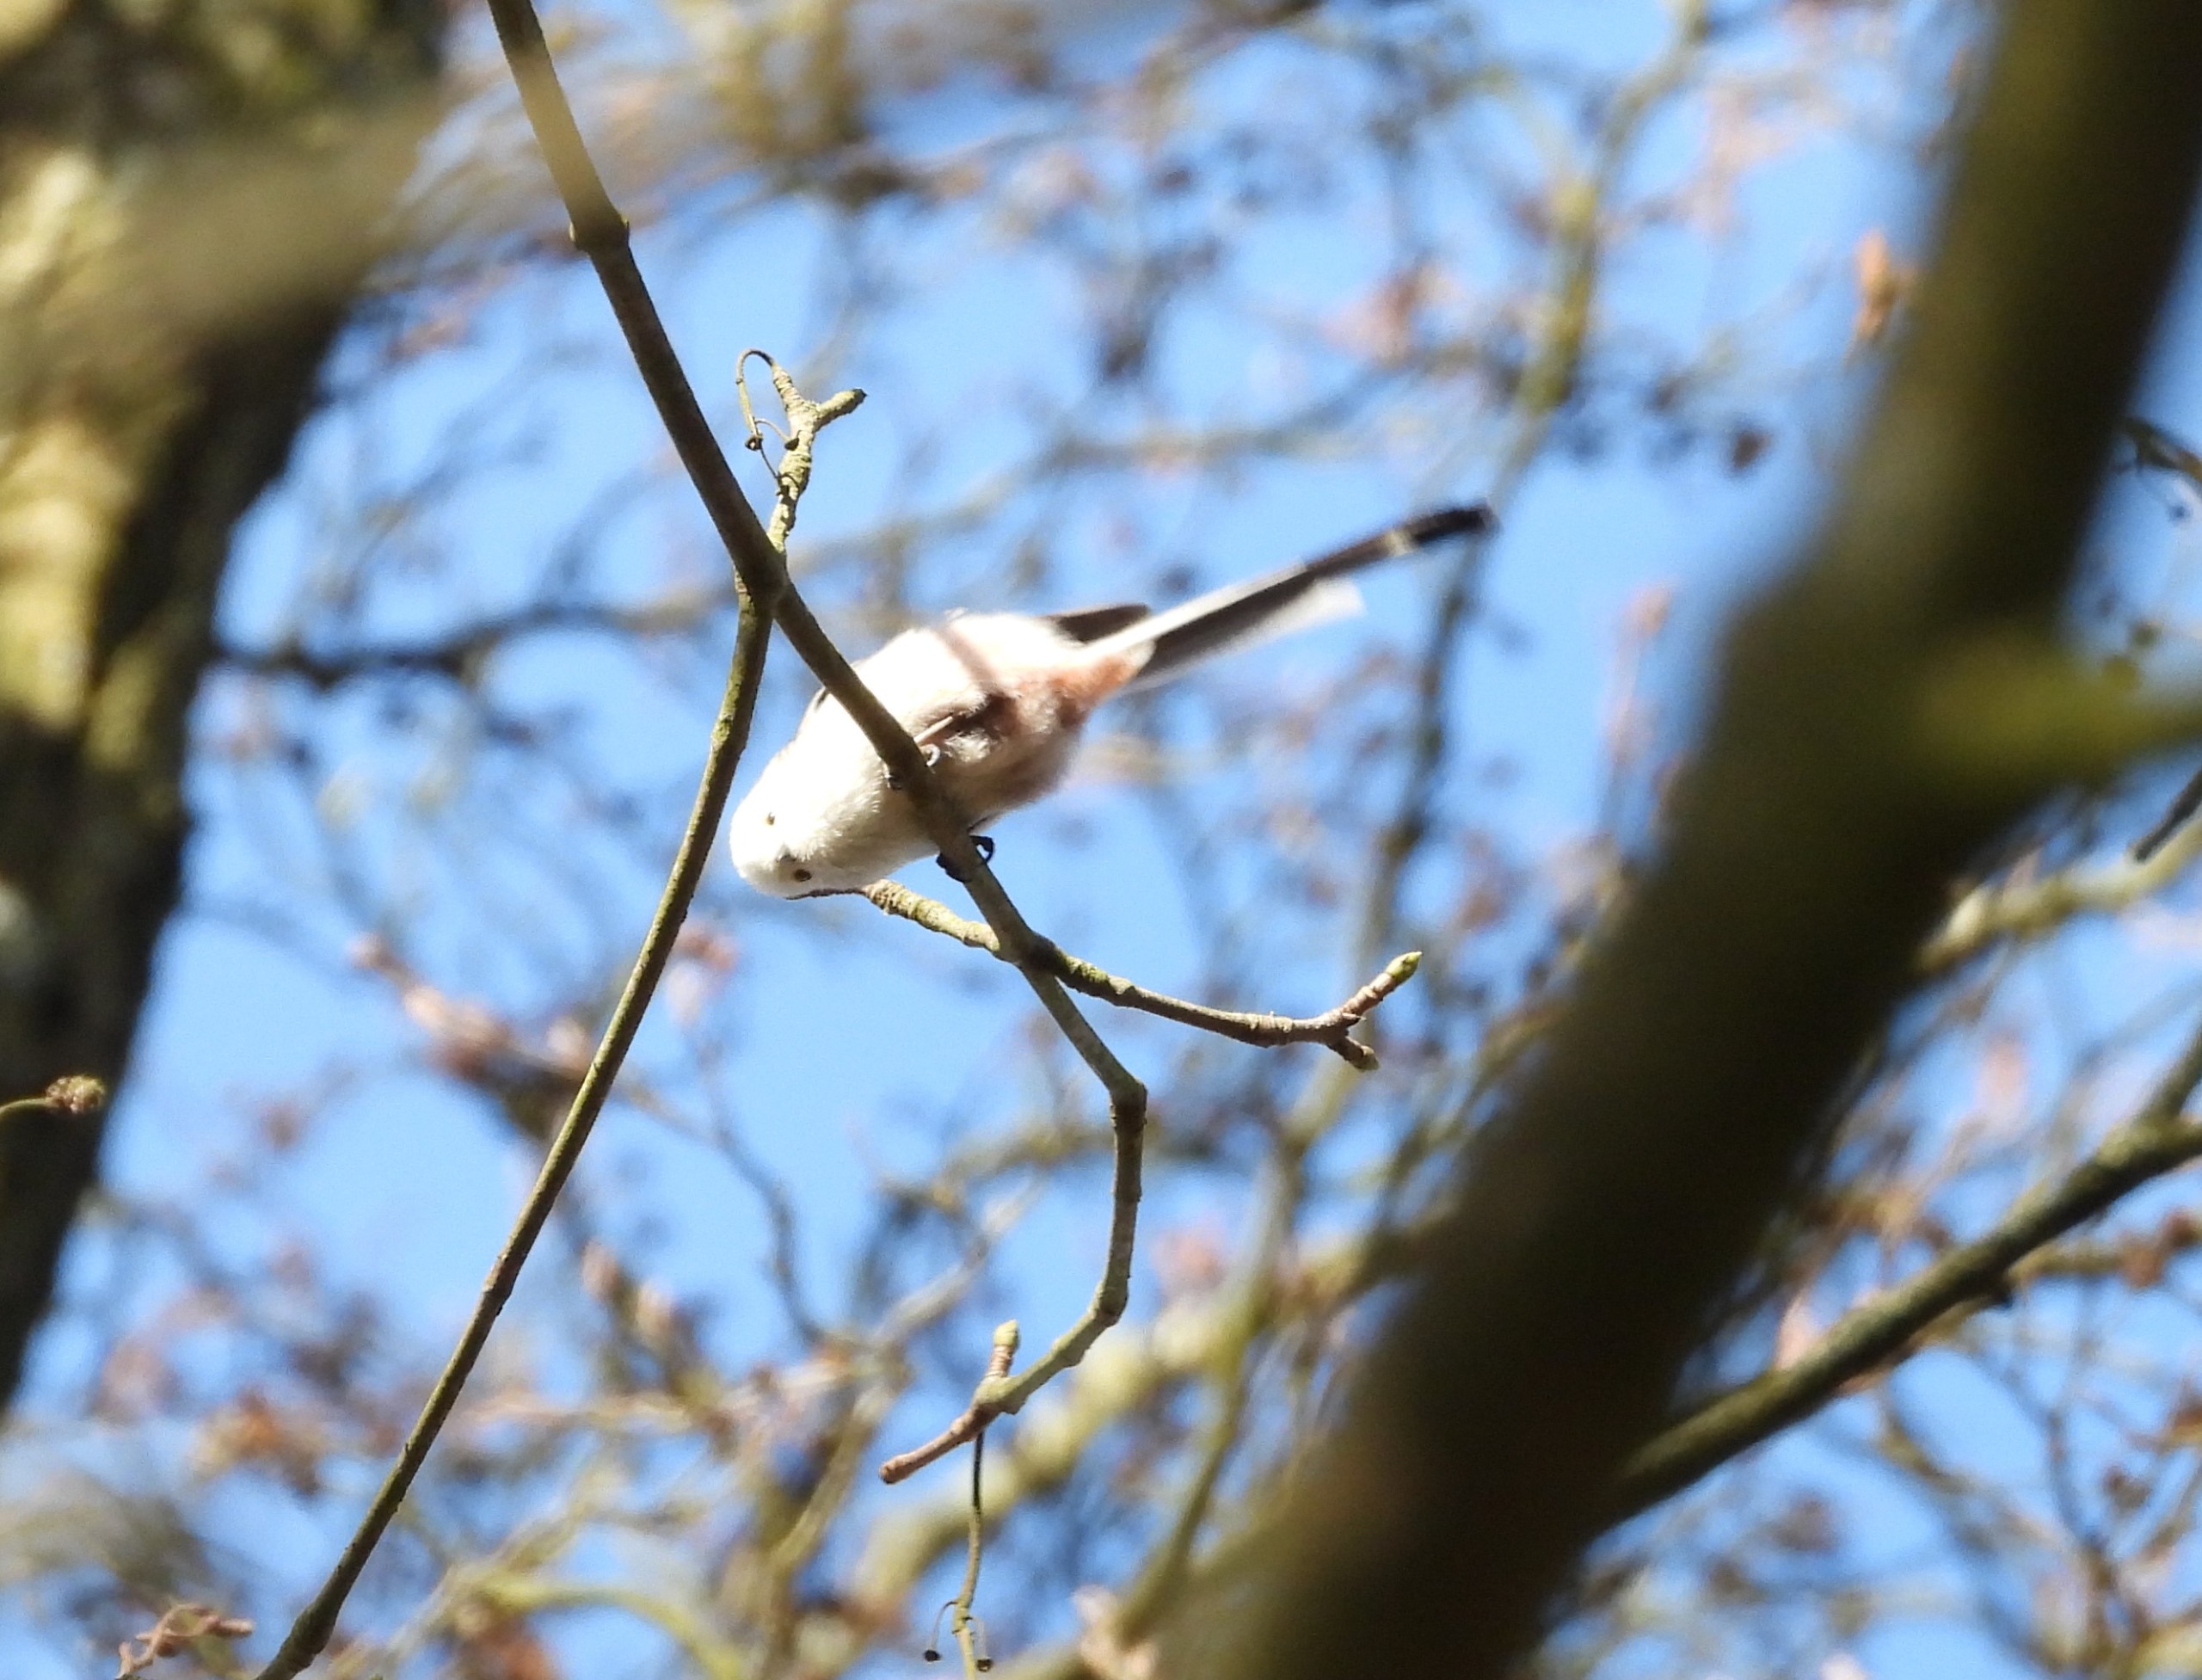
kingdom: Animalia
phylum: Chordata
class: Aves
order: Passeriformes
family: Aegithalidae
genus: Aegithalos
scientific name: Aegithalos caudatus
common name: Halemejse
